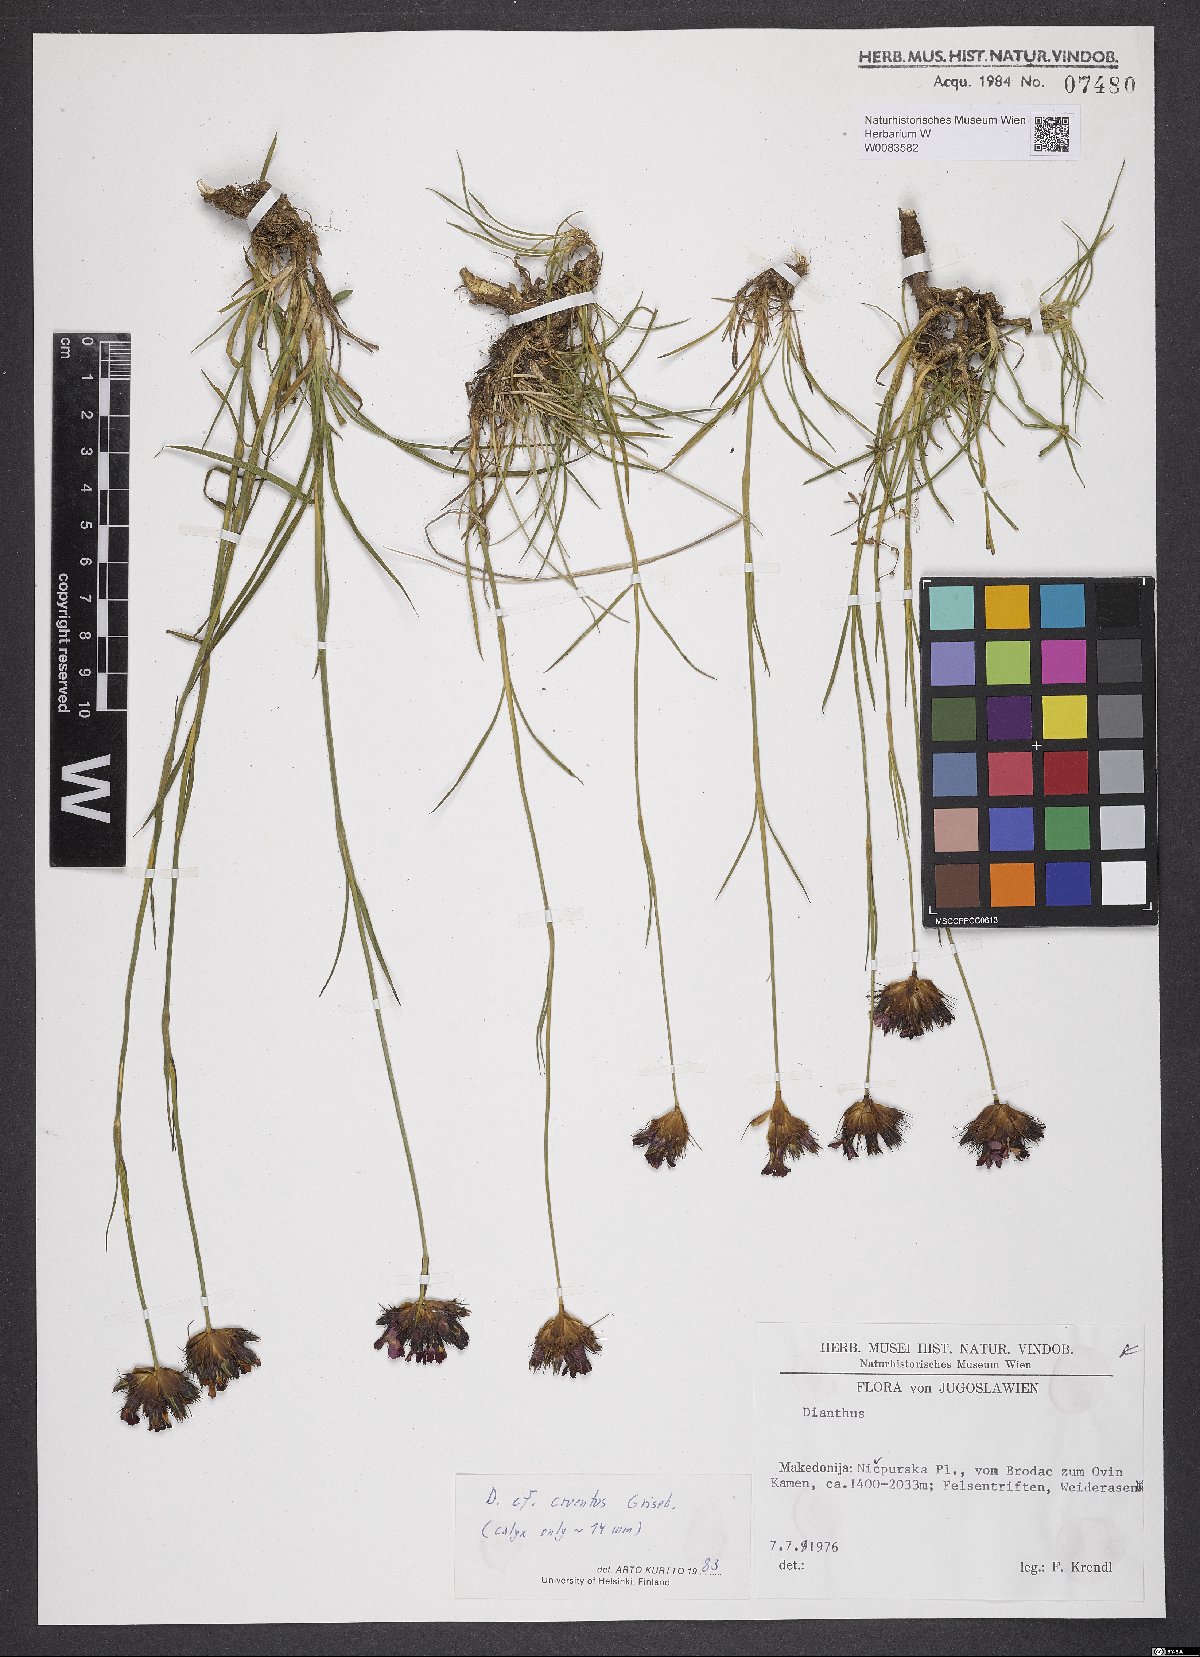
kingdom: Plantae
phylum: Tracheophyta
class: Magnoliopsida
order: Caryophyllales
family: Caryophyllaceae
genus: Dianthus
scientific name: Dianthus cruentus
